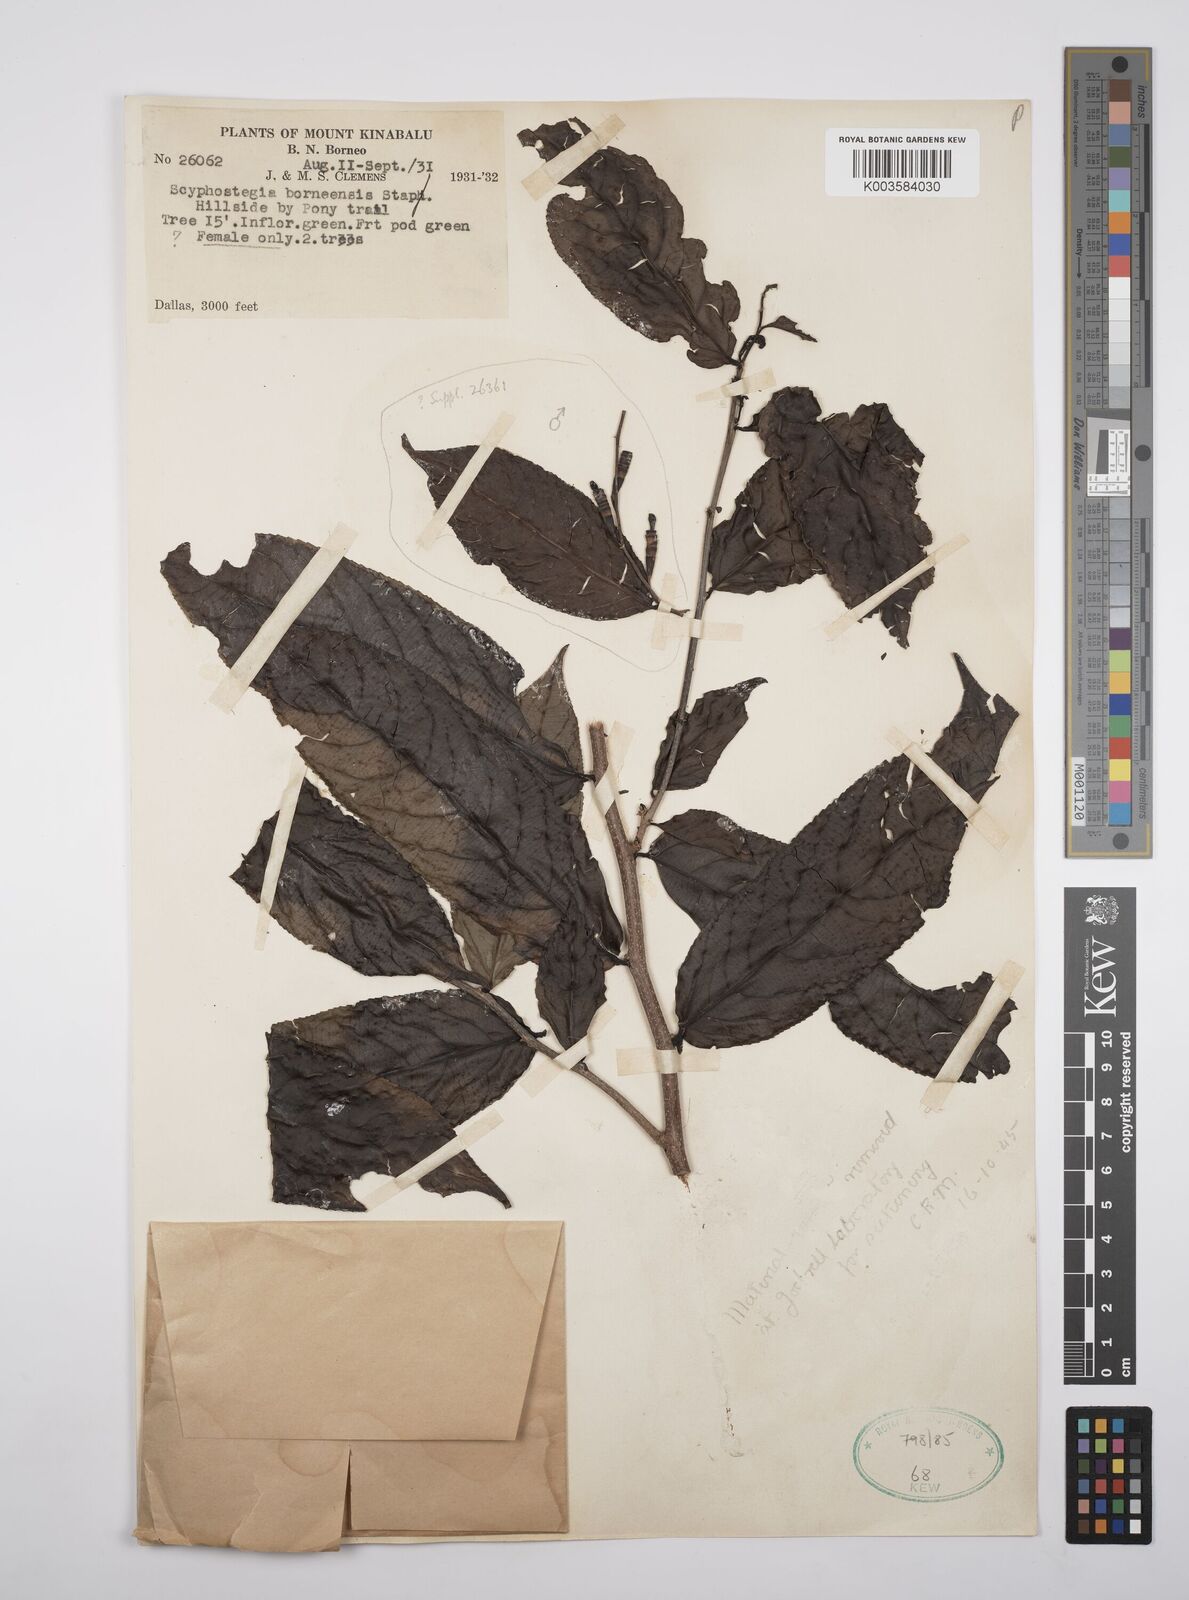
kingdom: Plantae
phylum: Tracheophyta
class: Magnoliopsida
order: Malpighiales
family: Salicaceae
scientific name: Salicaceae
